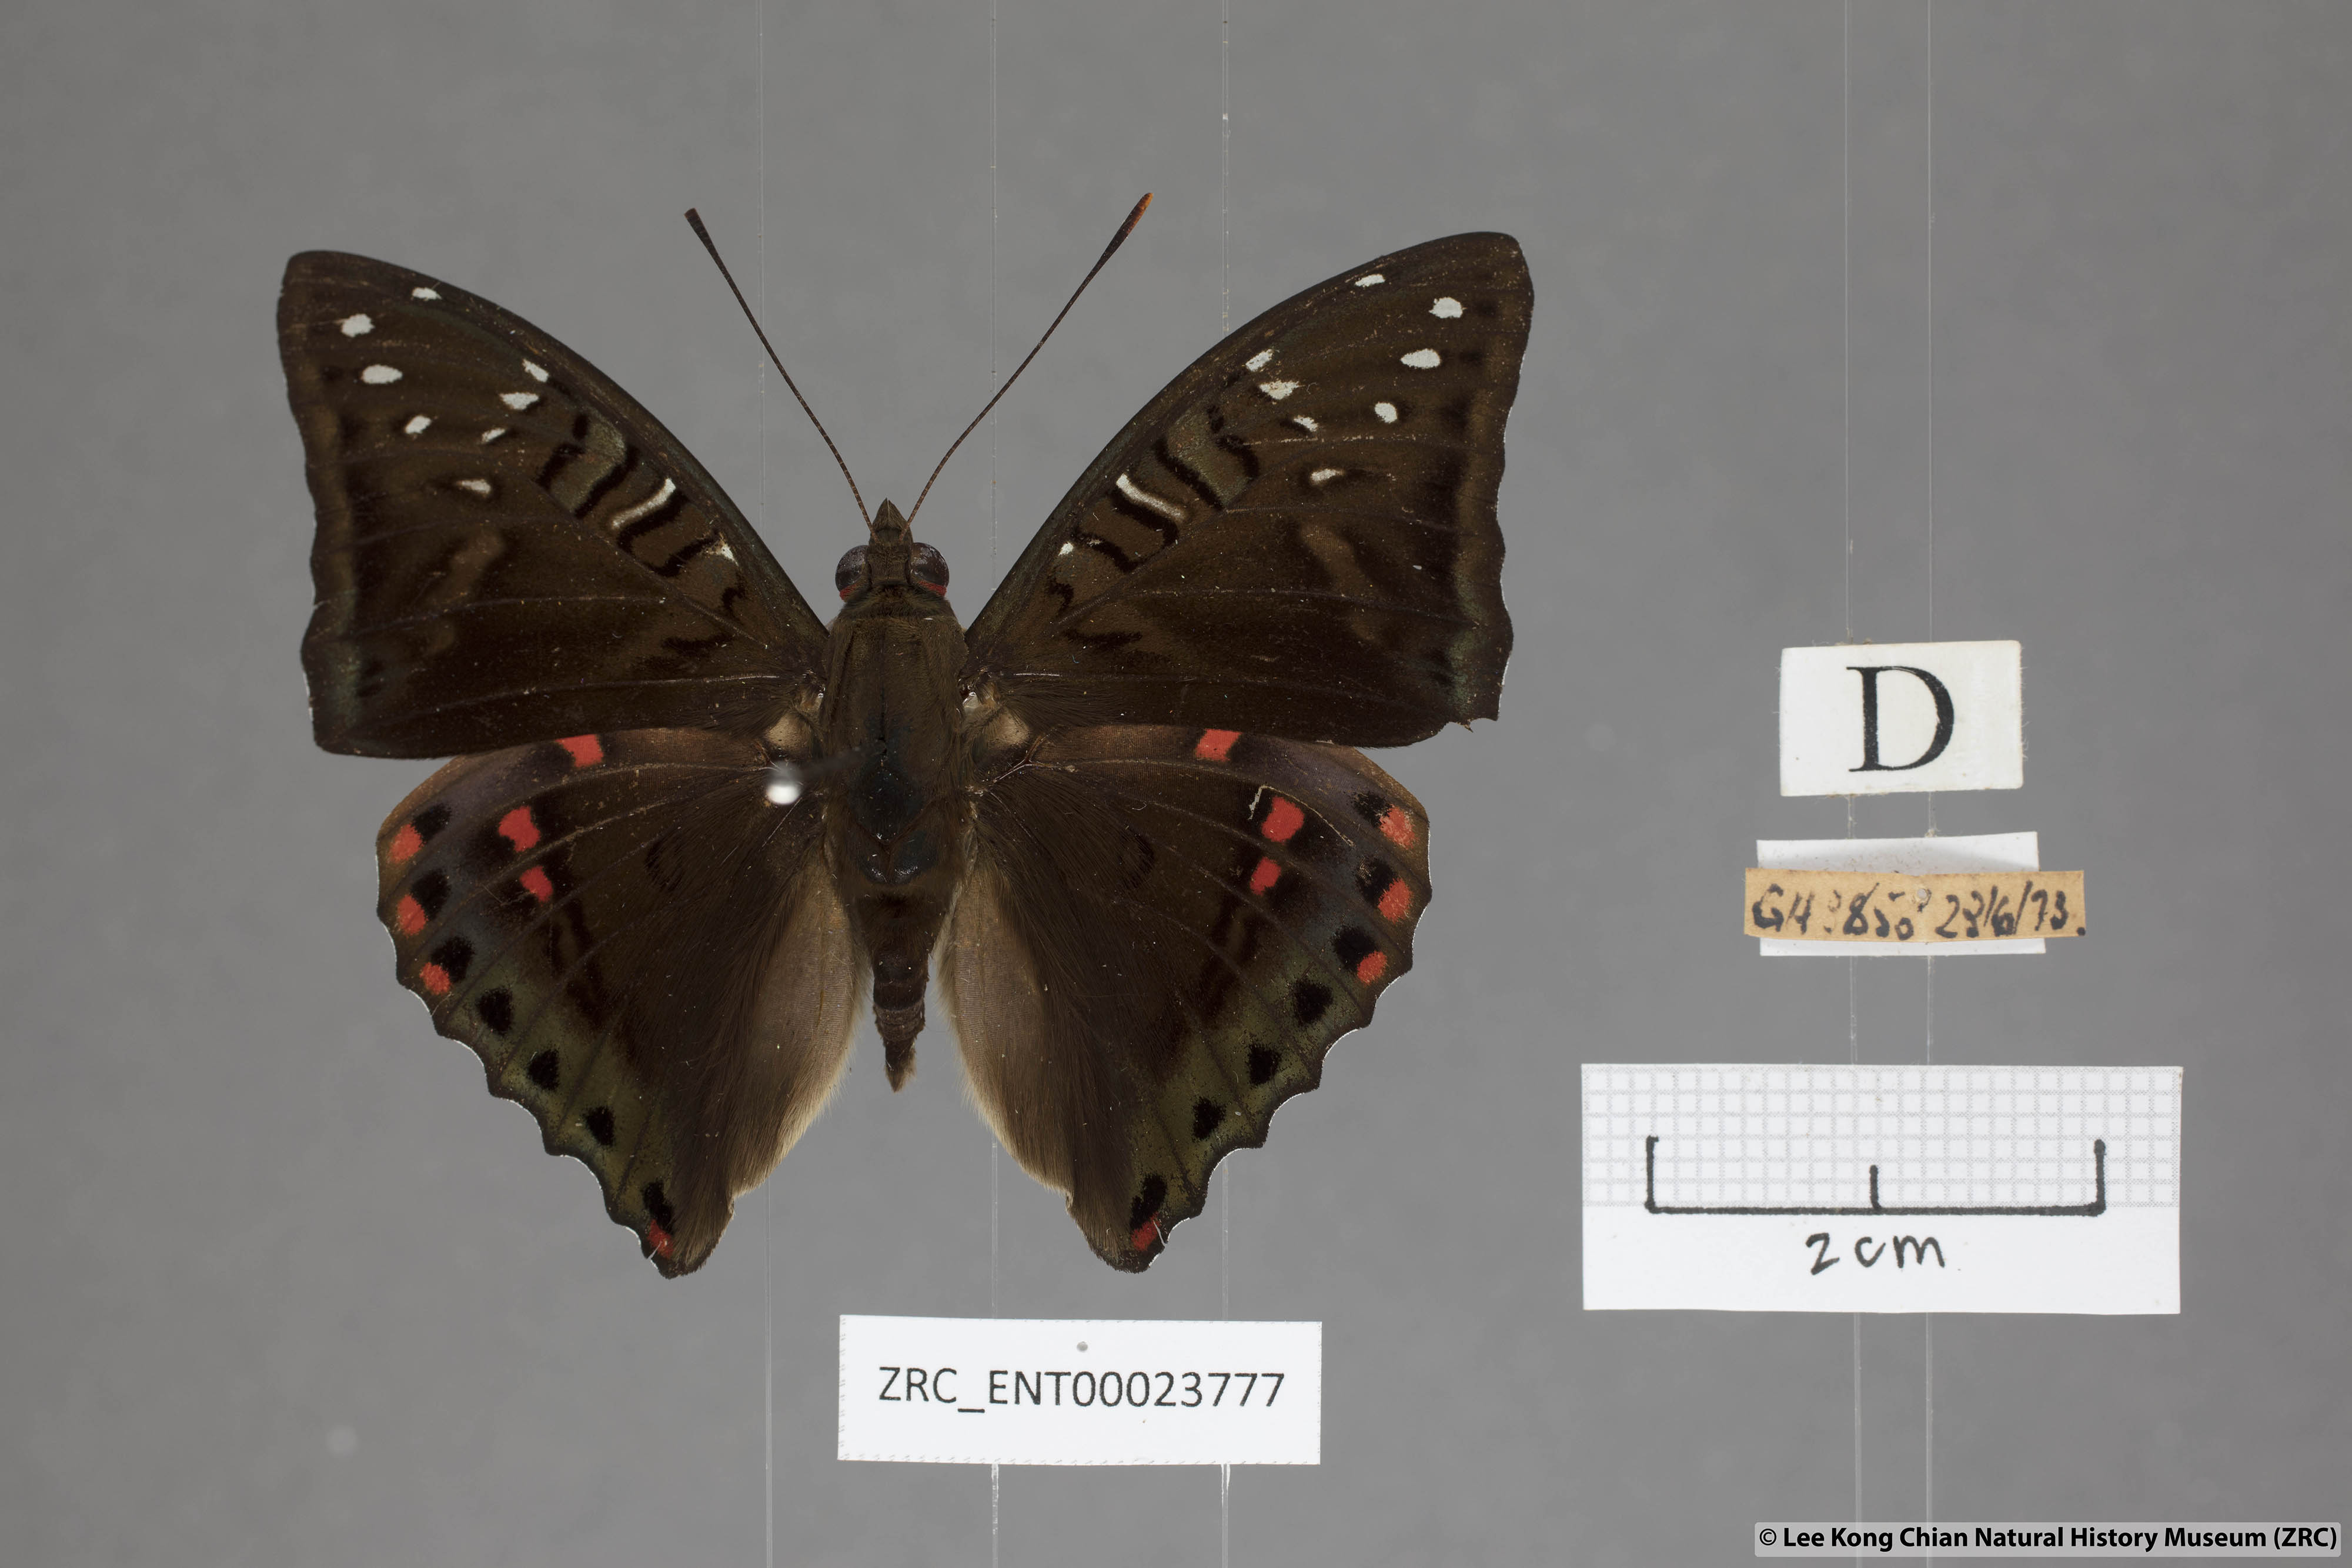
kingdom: Animalia
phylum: Arthropoda
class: Insecta
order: Lepidoptera
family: Nymphalidae
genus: Euthalia
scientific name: Euthalia whiteheadi
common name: Tri-coloured baron
